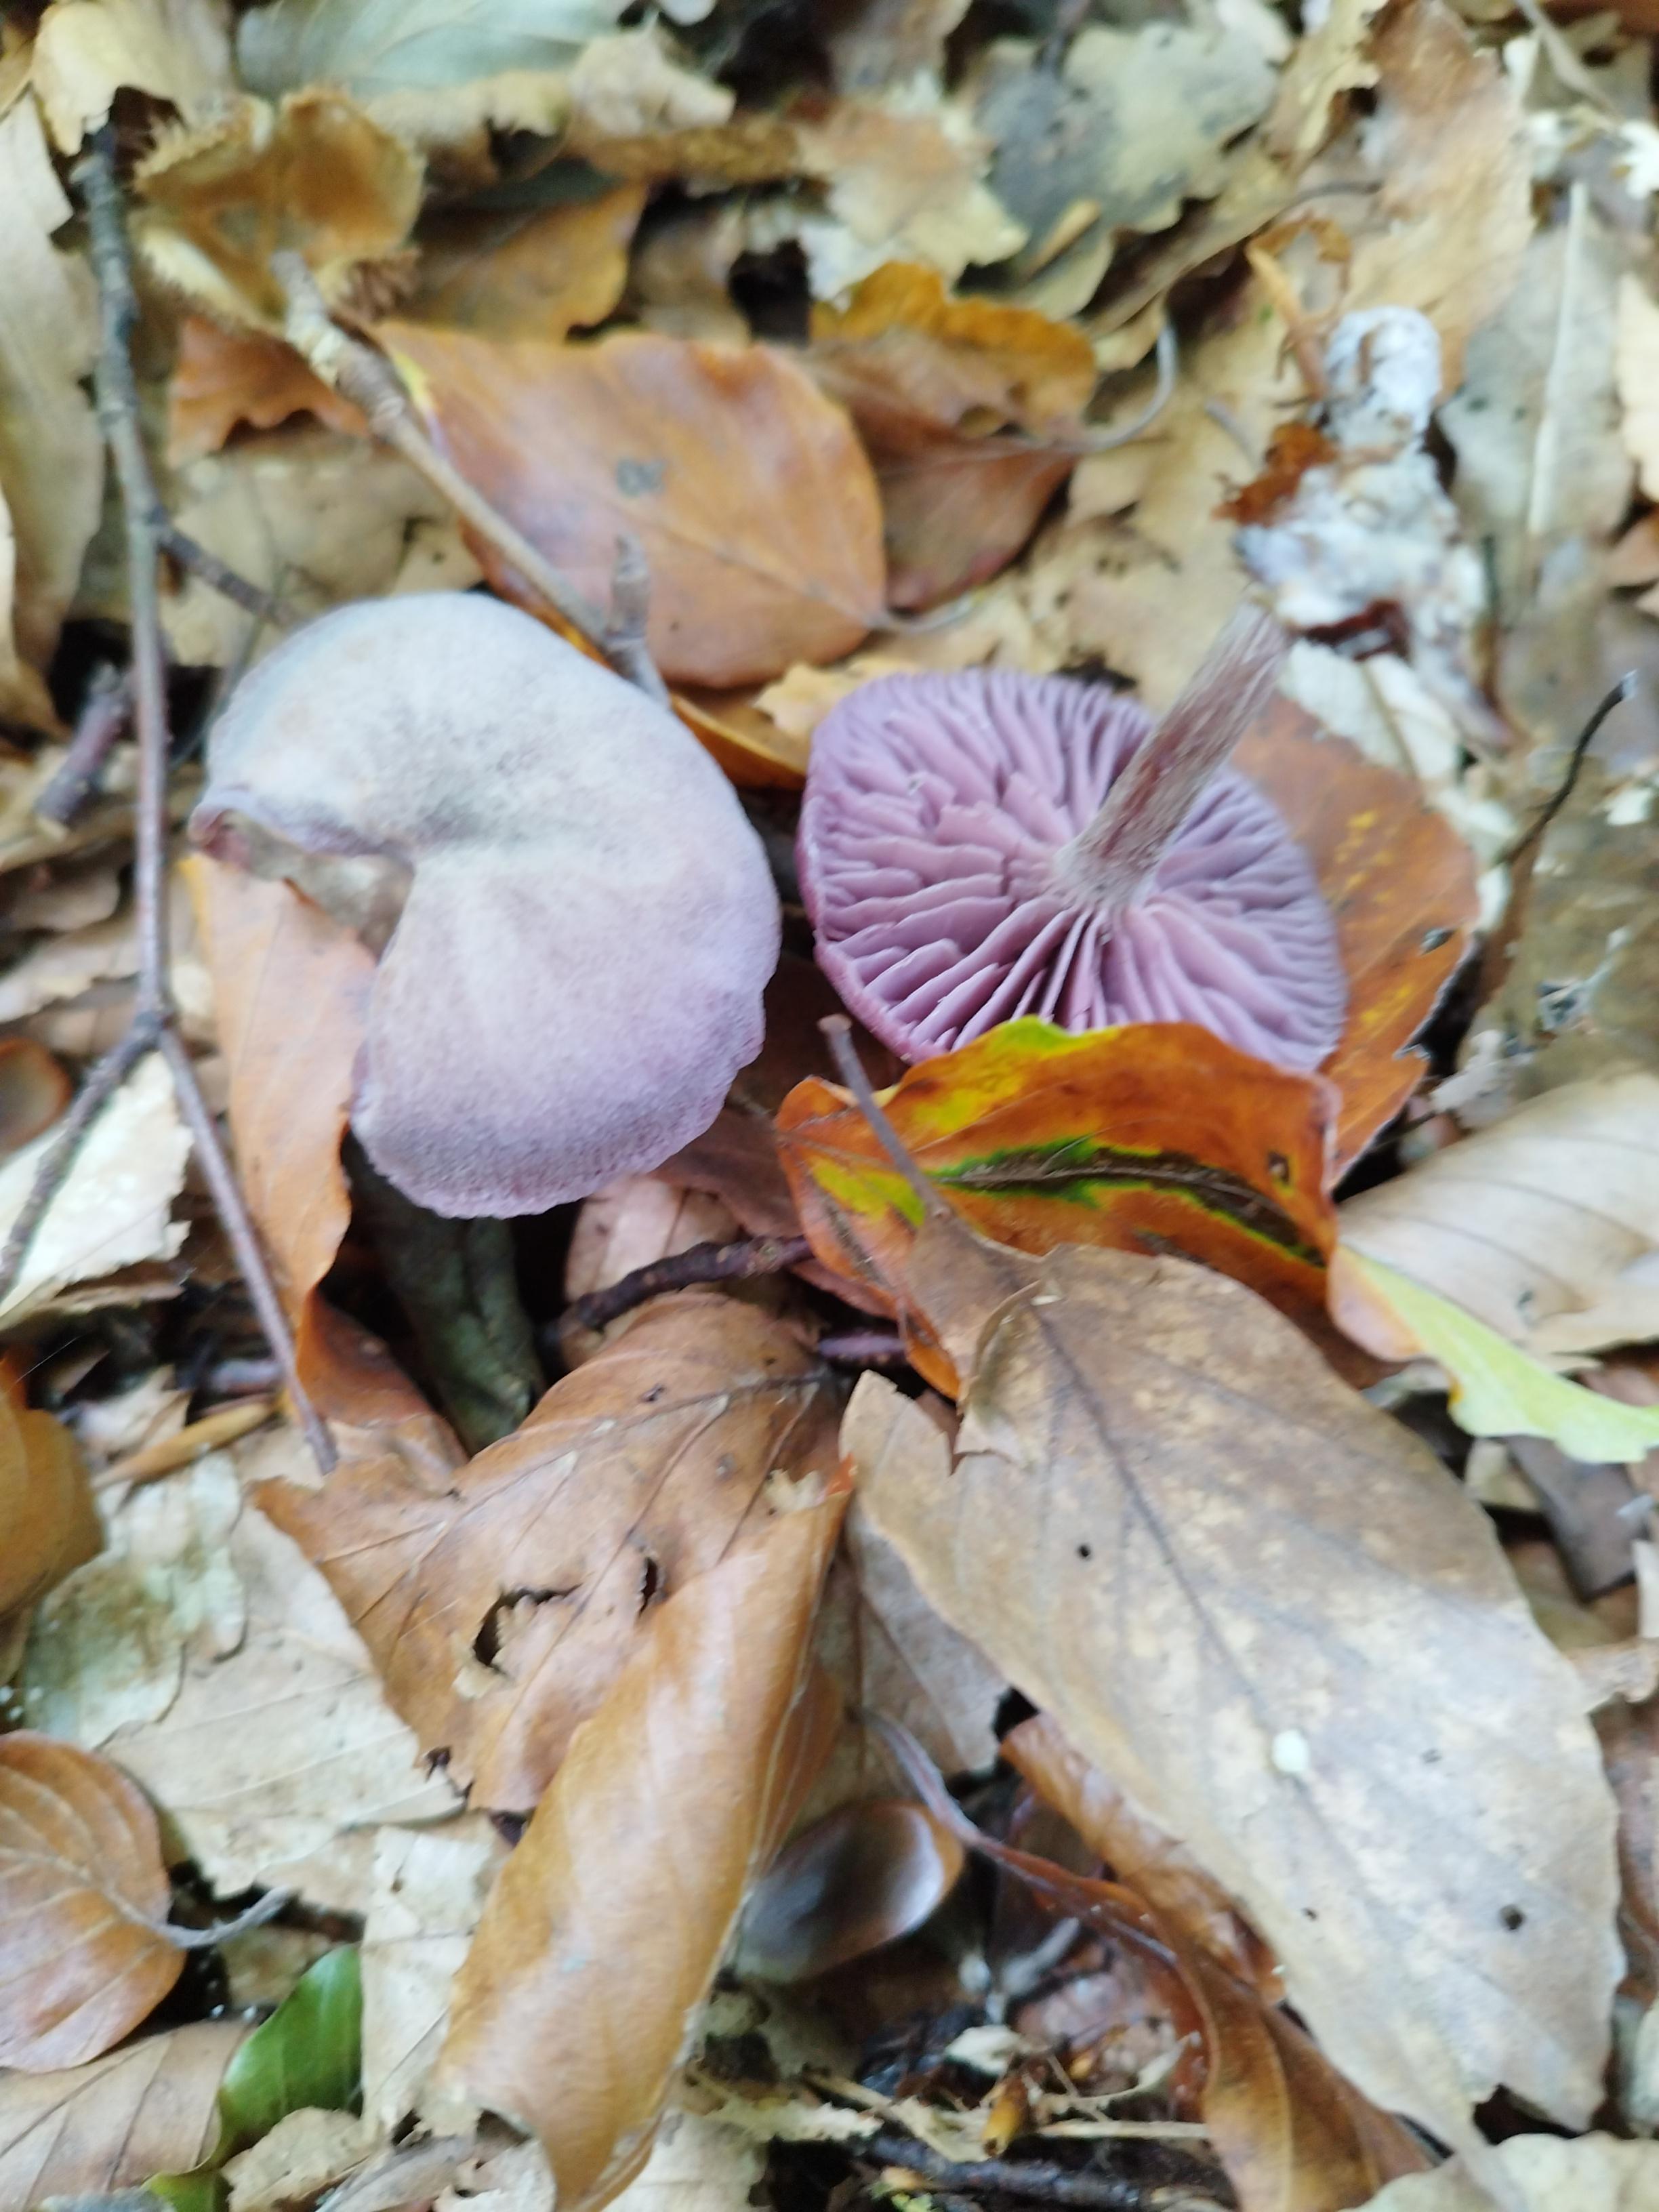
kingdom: Fungi
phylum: Basidiomycota
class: Agaricomycetes
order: Agaricales
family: Hydnangiaceae
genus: Laccaria
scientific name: Laccaria amethystina
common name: violet ametysthat
